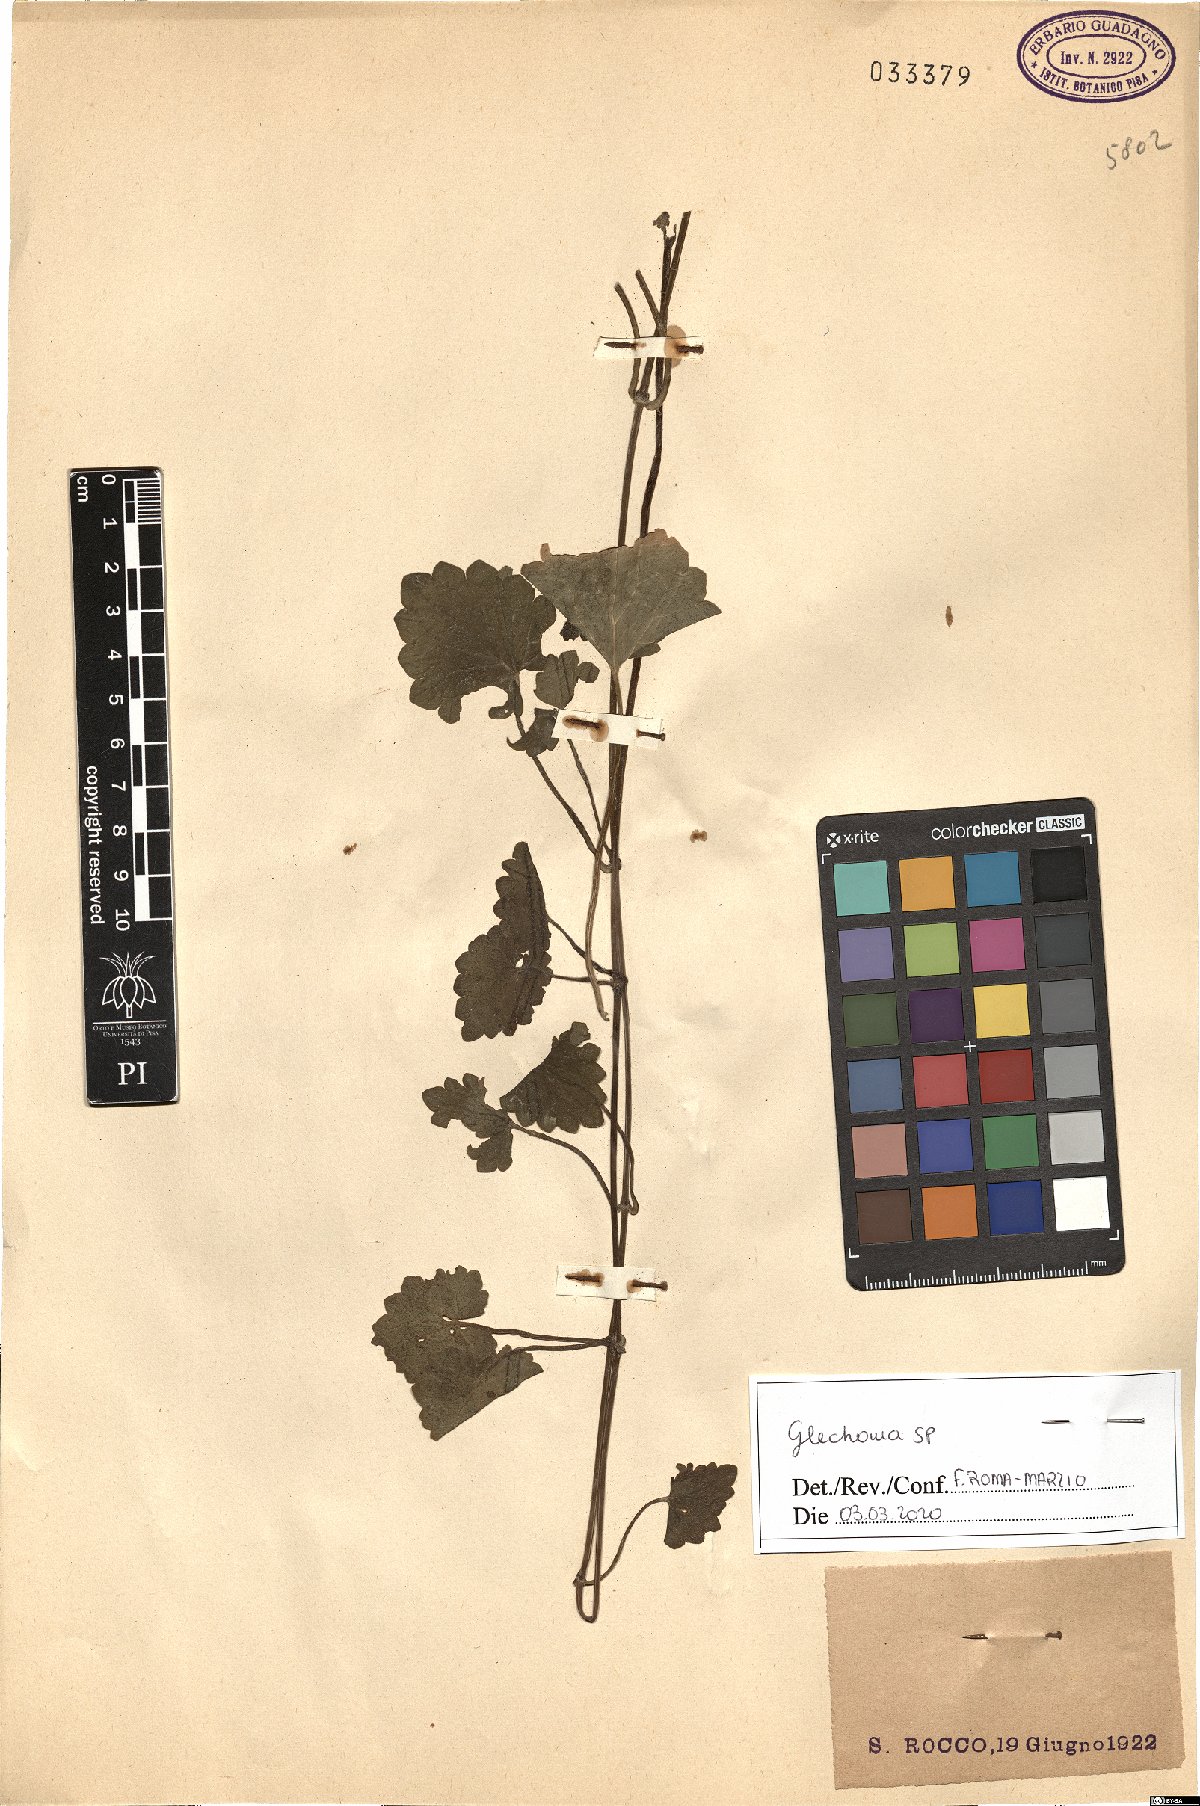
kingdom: Plantae
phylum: Tracheophyta
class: Magnoliopsida
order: Lamiales
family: Lamiaceae
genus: Glechoma
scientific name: Glechoma
